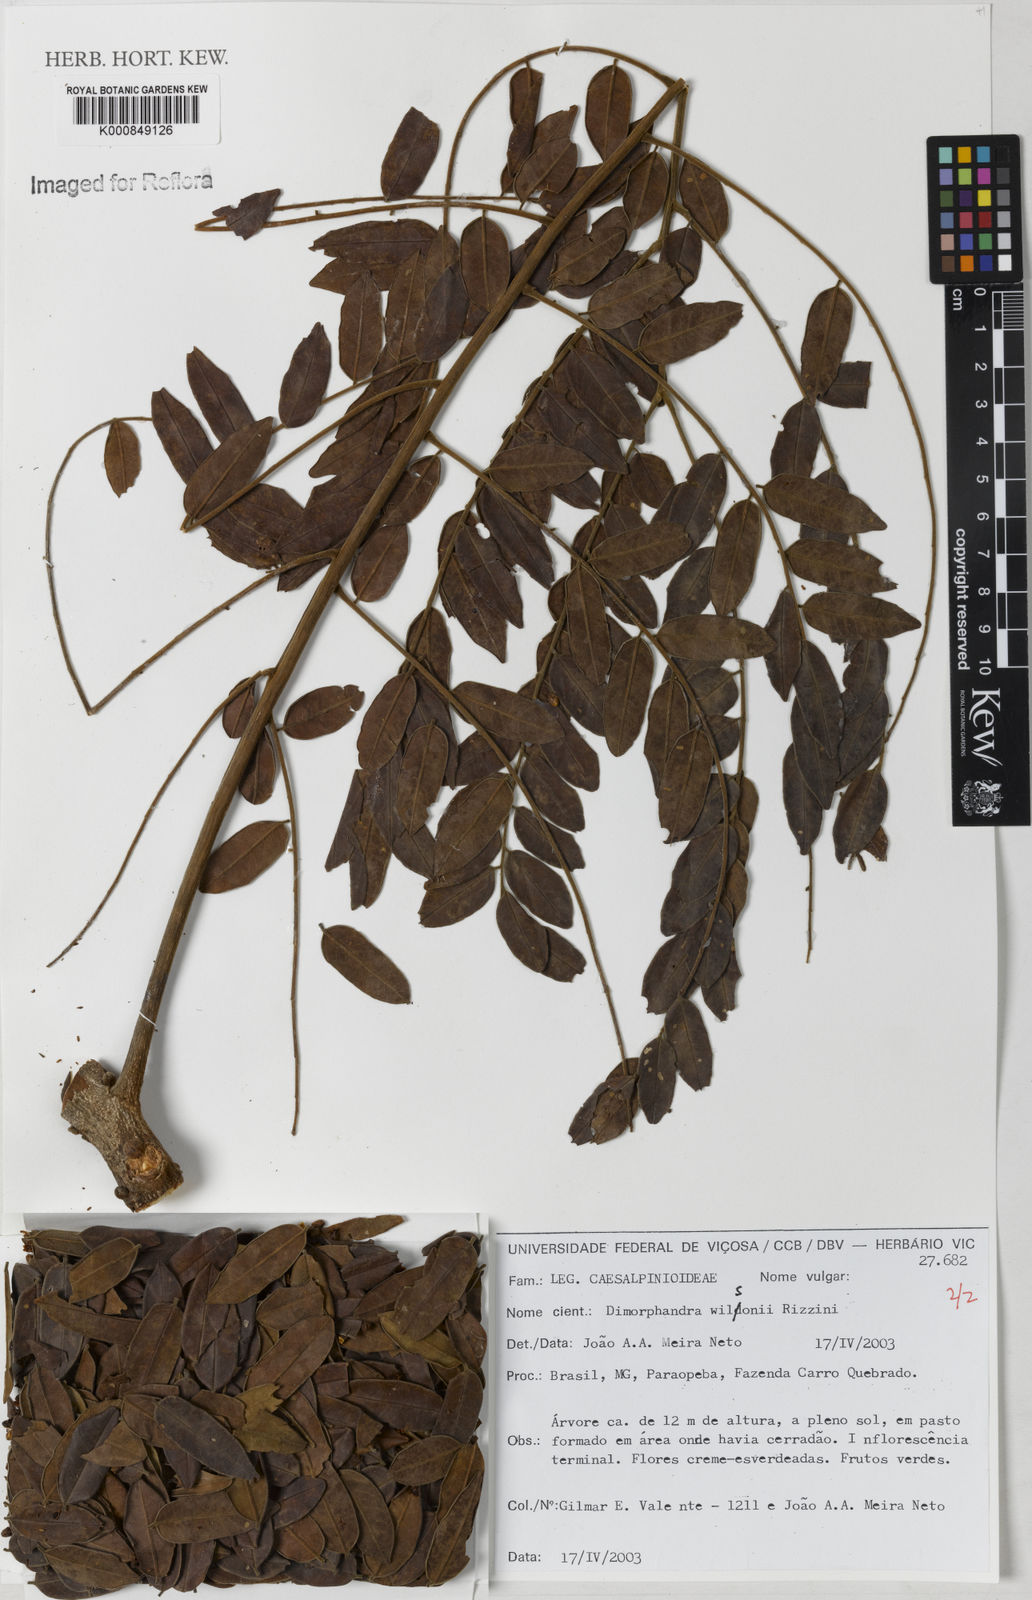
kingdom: Plantae
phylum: Tracheophyta
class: Magnoliopsida
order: Fabales
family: Fabaceae
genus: Dimorphandra
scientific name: Dimorphandra wilsonii
